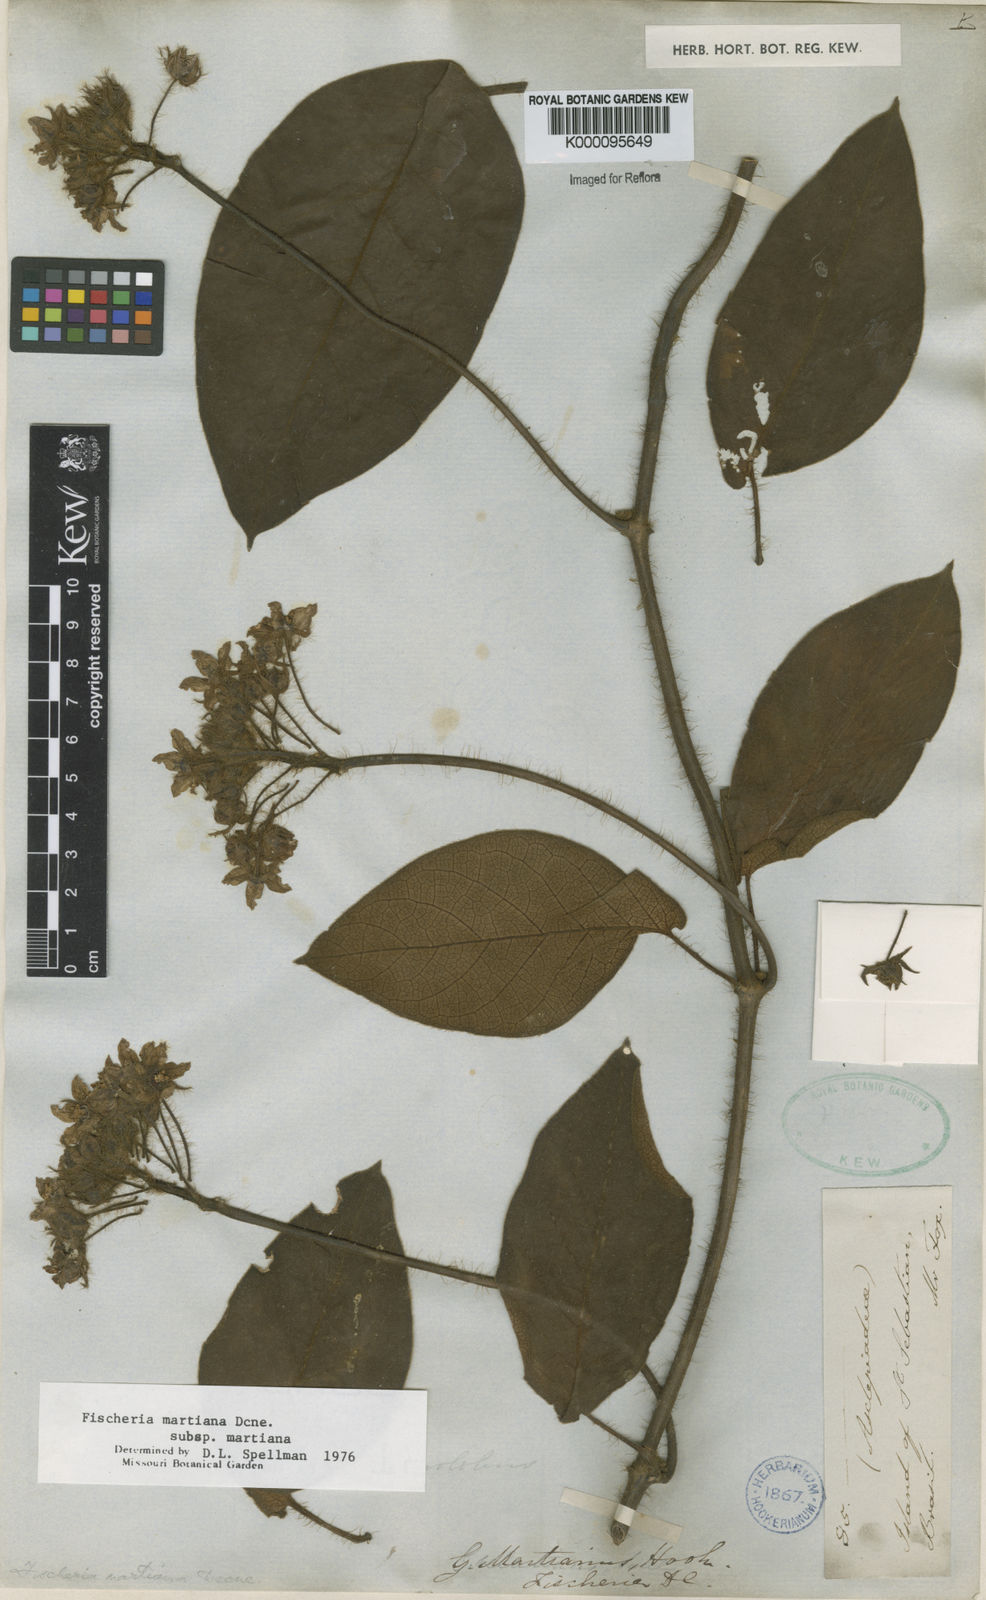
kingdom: Plantae
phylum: Tracheophyta
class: Magnoliopsida
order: Gentianales
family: Apocynaceae
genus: Fischeria
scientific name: Fischeria billbergiana
